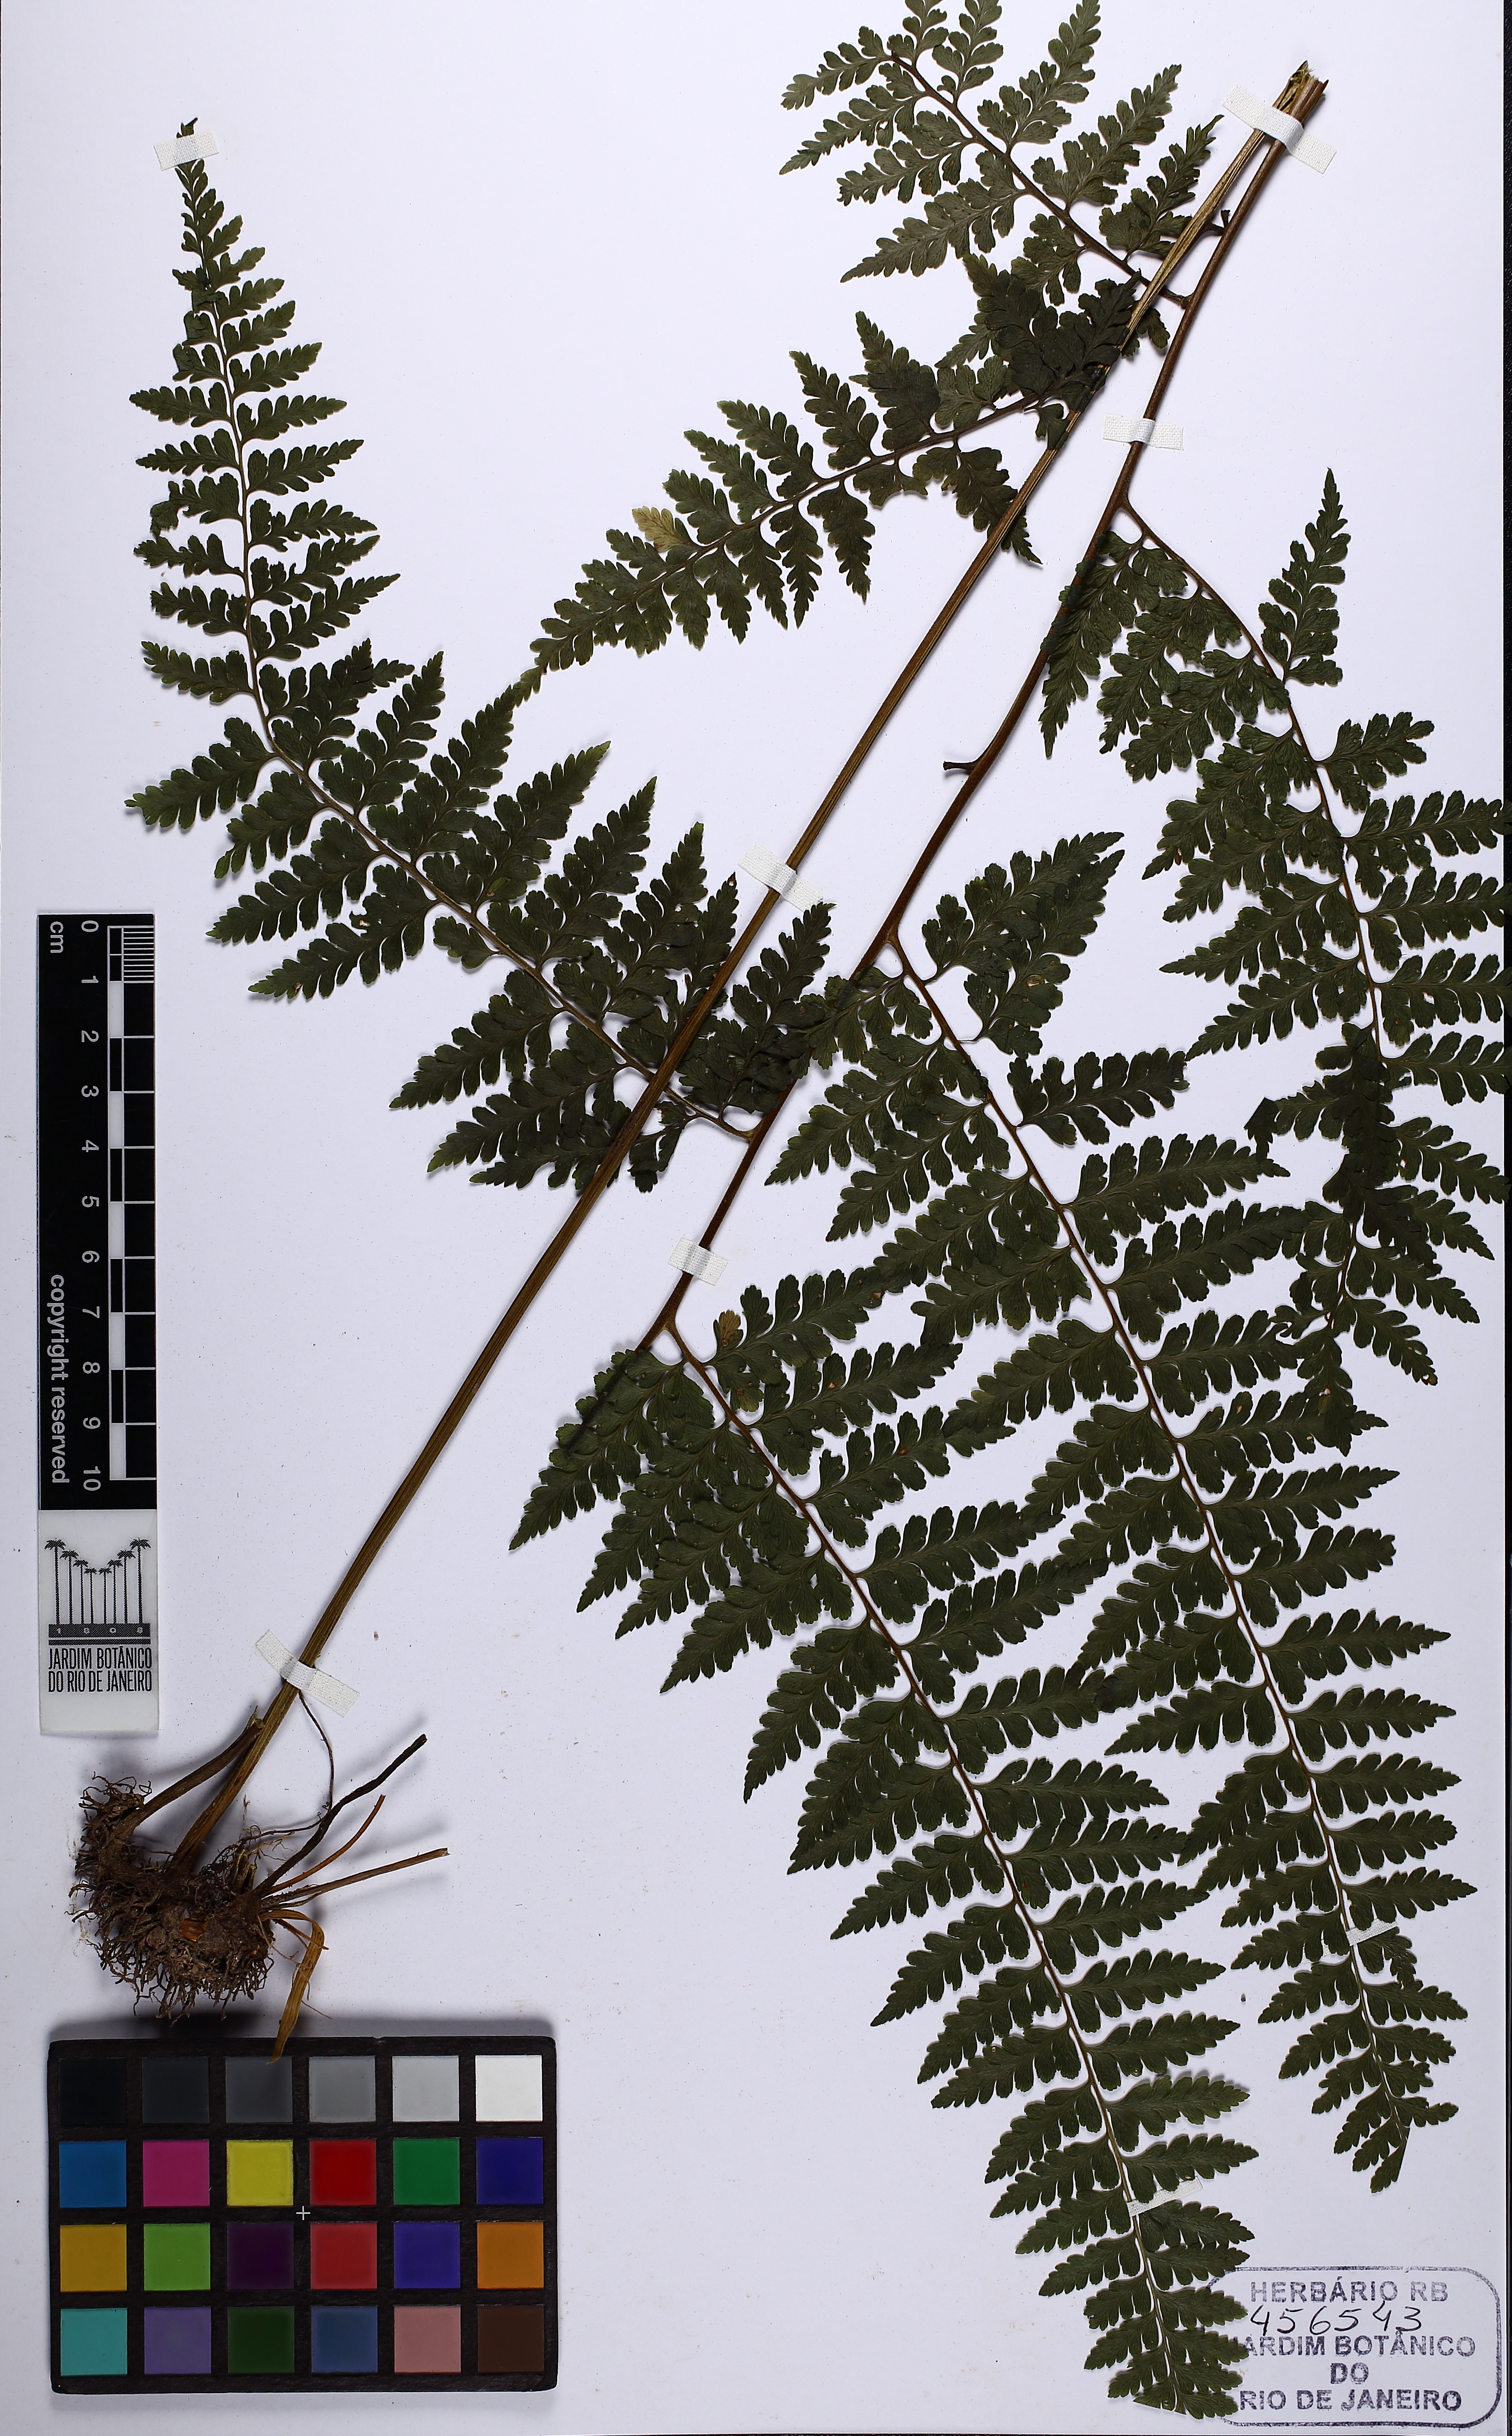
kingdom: Plantae
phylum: Tracheophyta
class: Polypodiopsida
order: Polypodiales
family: Dennstaedtiaceae
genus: Microlepia
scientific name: Microlepia speluncae
